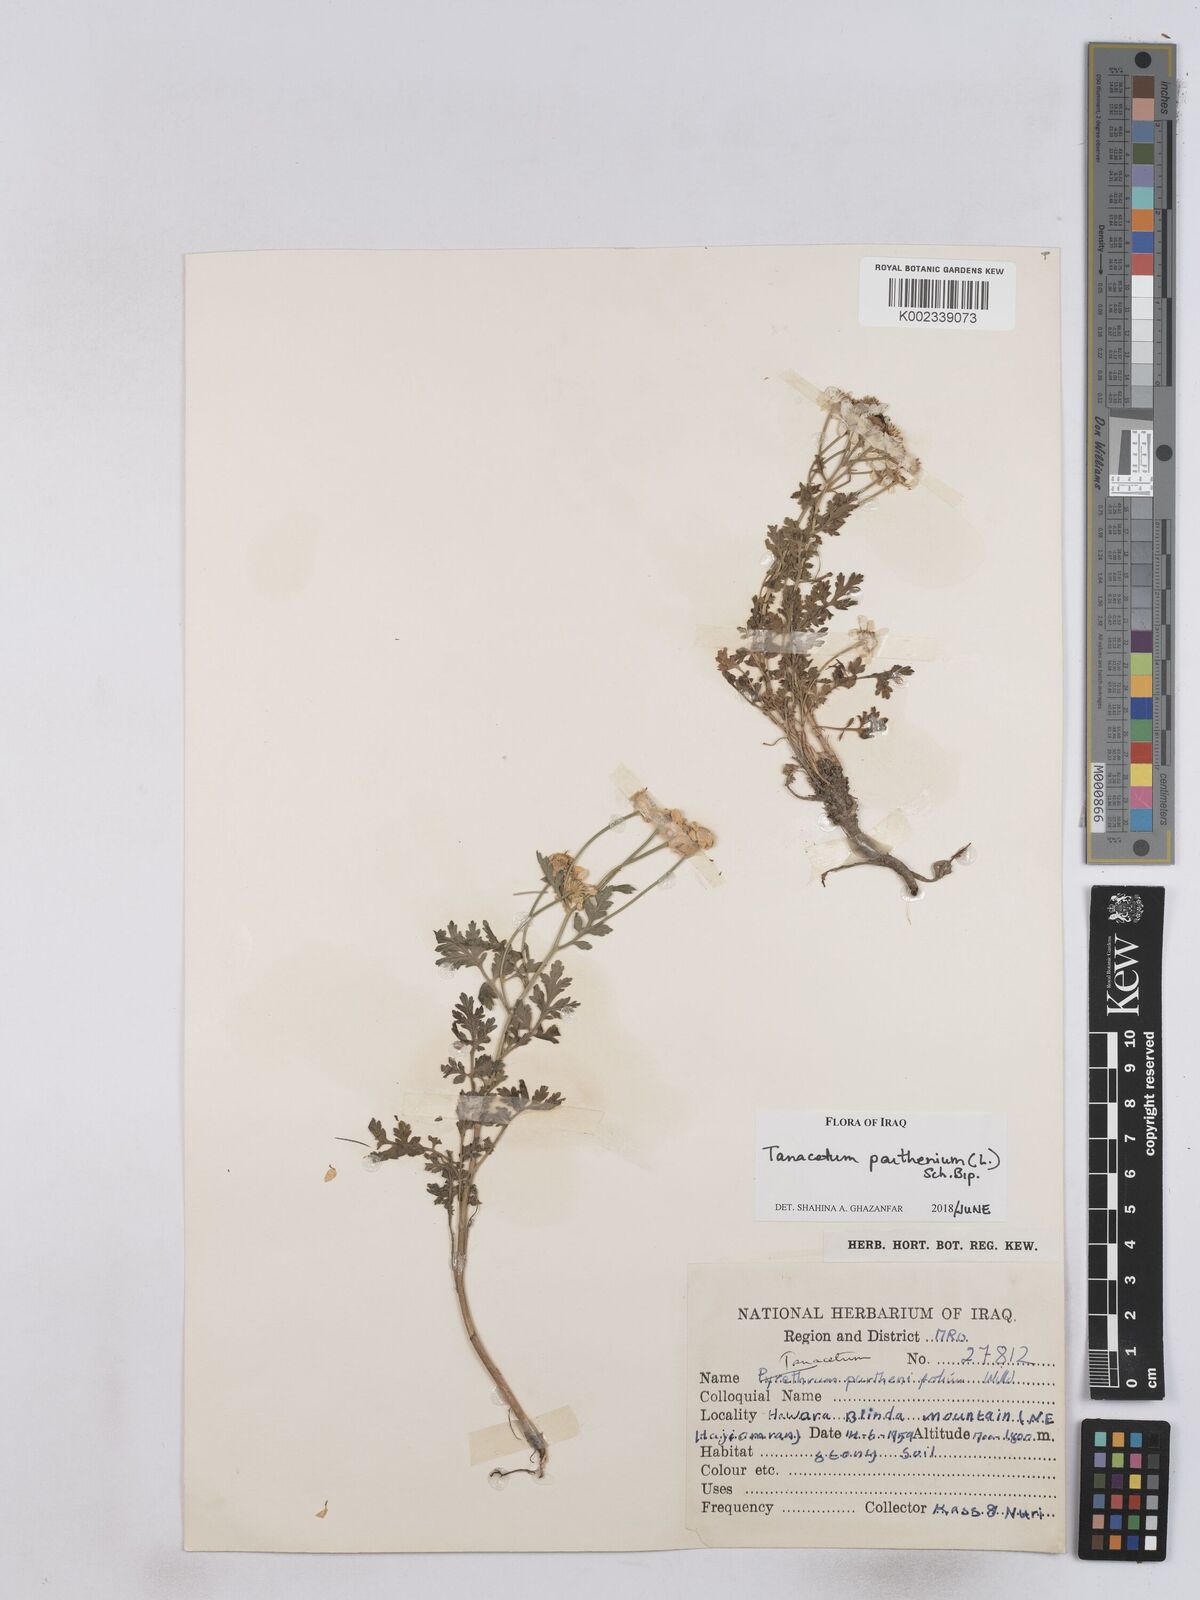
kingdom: Plantae
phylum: Tracheophyta
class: Magnoliopsida
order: Asterales
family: Asteraceae
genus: Tanacetum
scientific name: Tanacetum parthenium
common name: Feverfew
